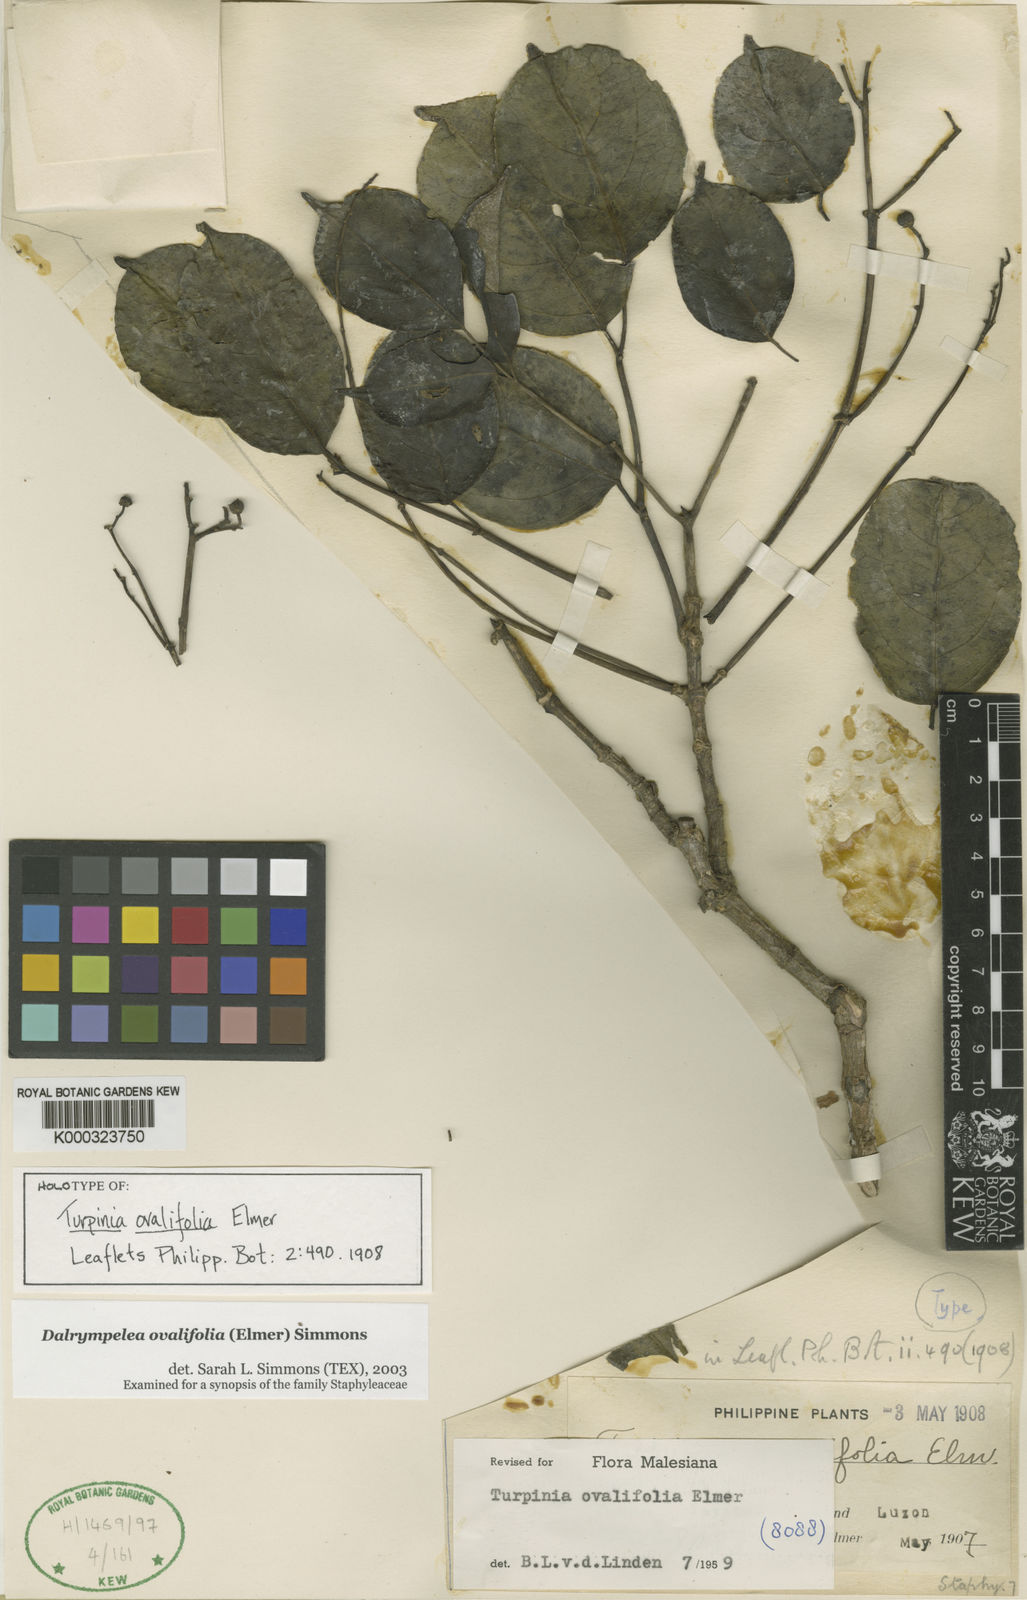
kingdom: Plantae
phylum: Tracheophyta
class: Magnoliopsida
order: Crossosomatales
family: Staphyleaceae
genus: Dalrympelea
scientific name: Dalrympelea trifoliata
